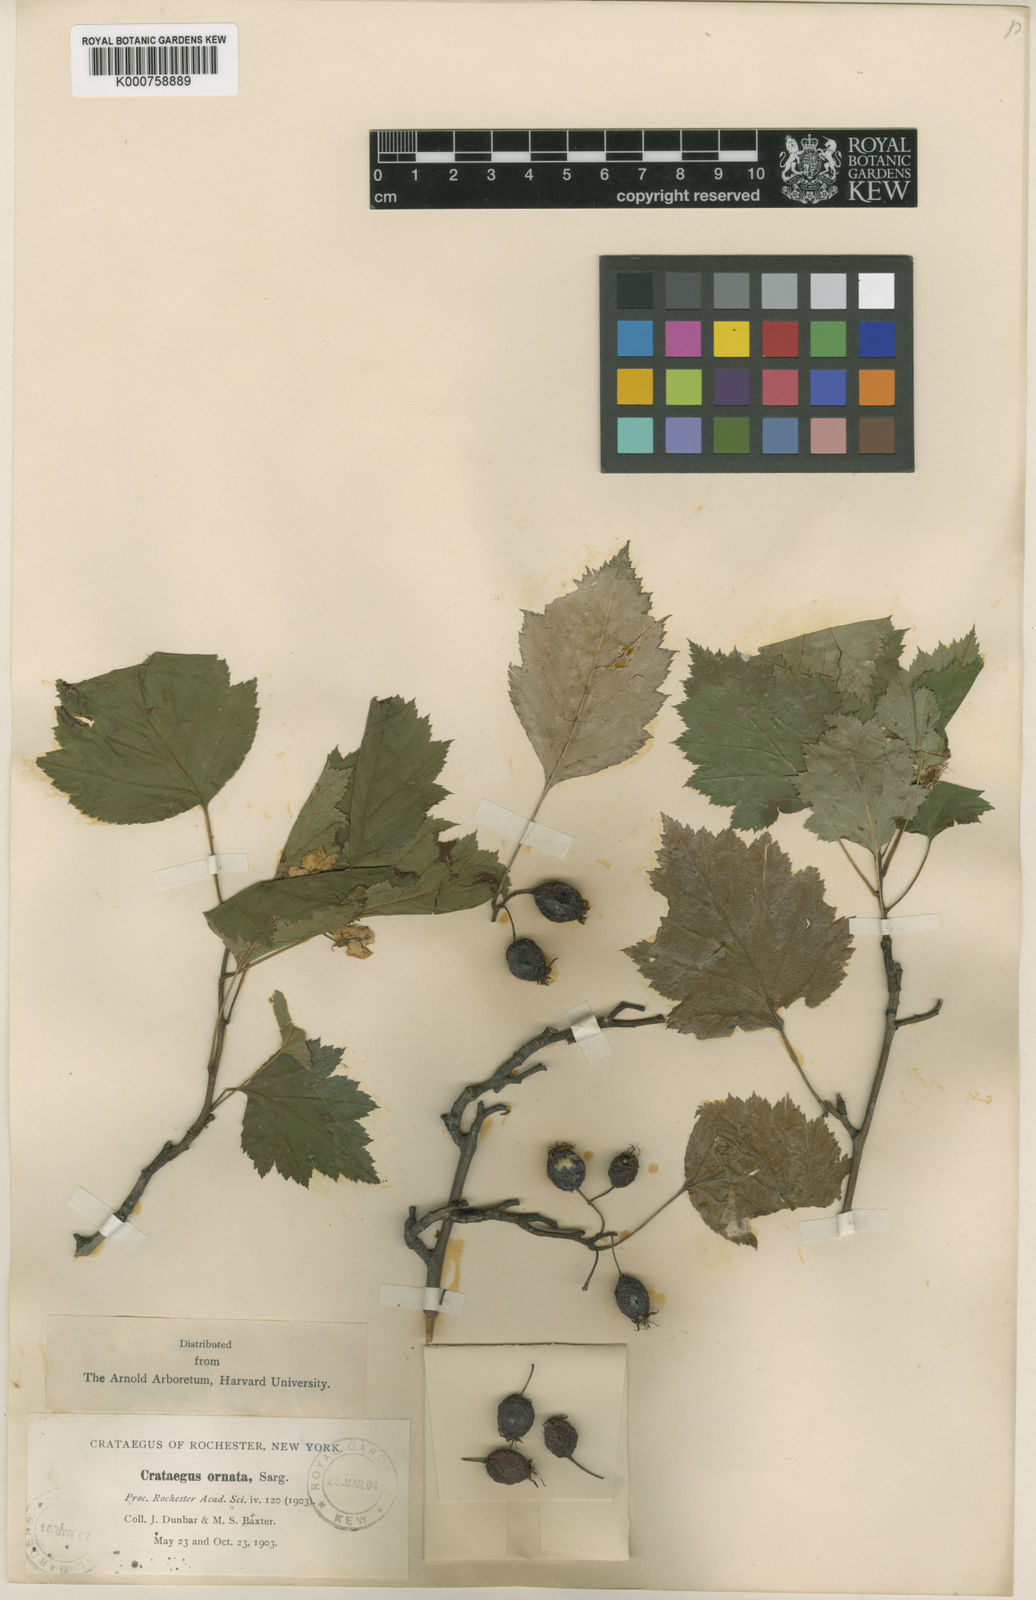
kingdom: Plantae
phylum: Tracheophyta
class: Magnoliopsida
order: Rosales
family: Rosaceae
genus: Crataegus
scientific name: Crataegus ornata
